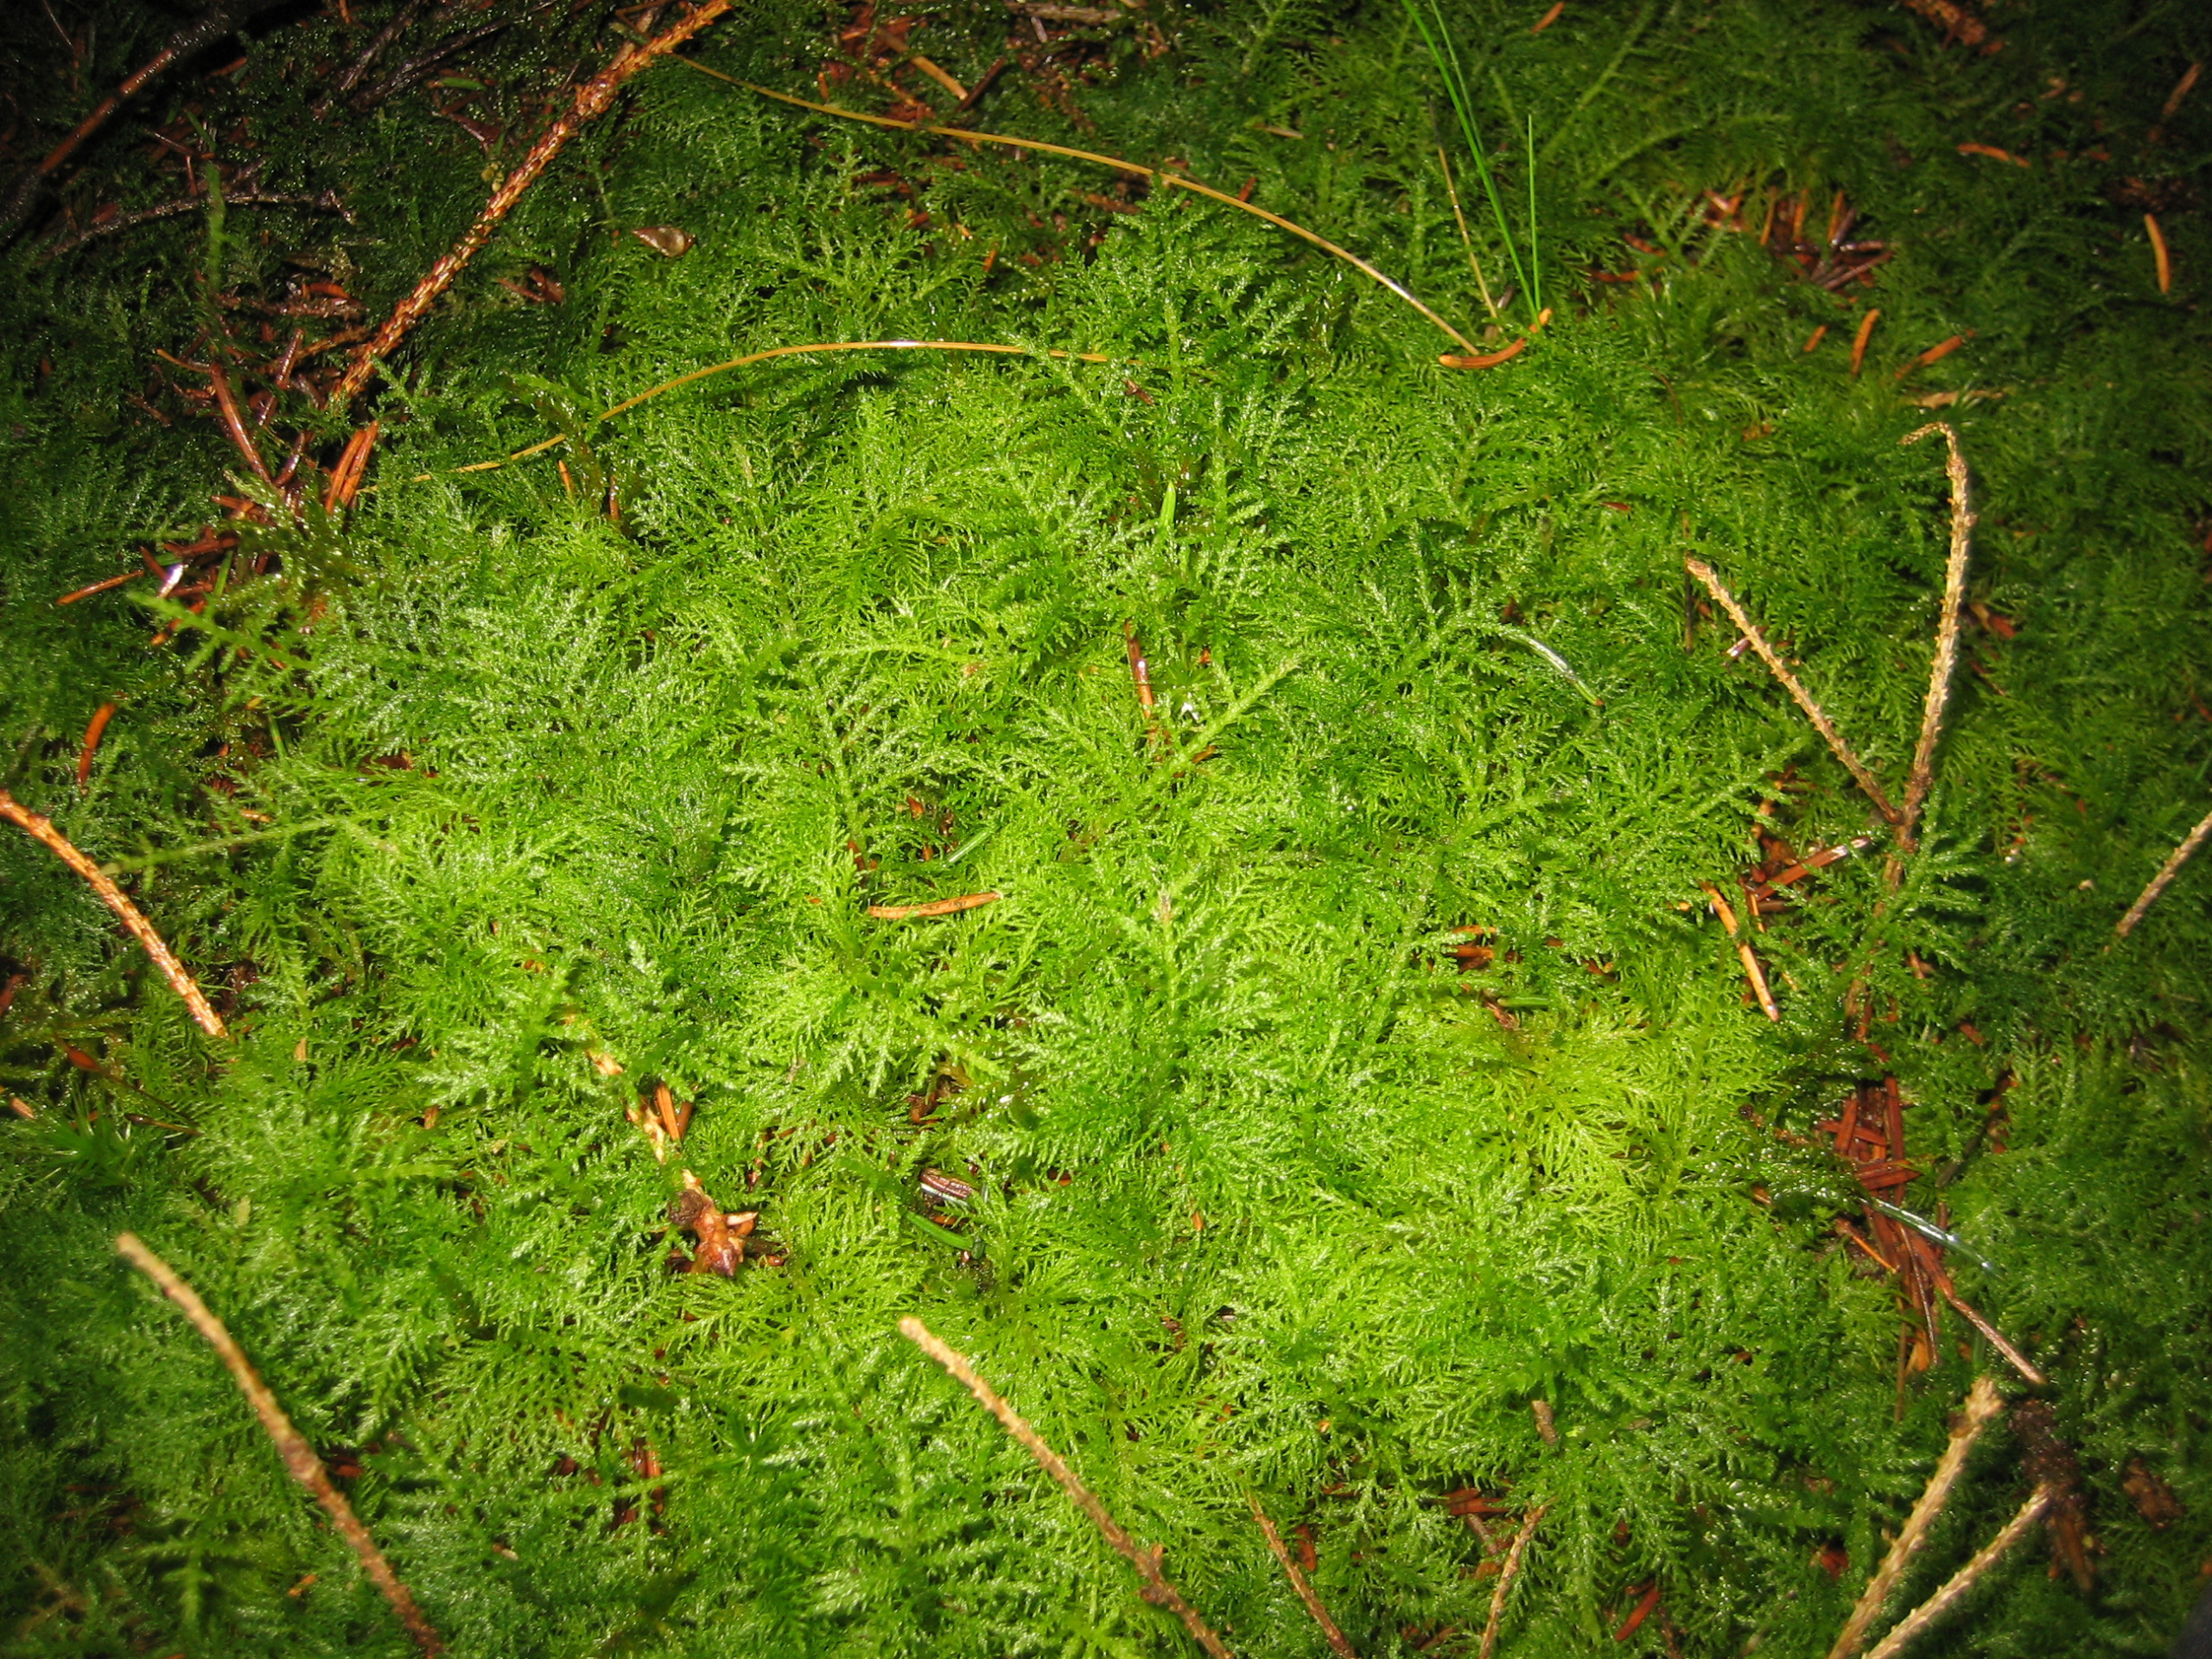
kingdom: Plantae
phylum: Bryophyta
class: Bryopsida
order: Hypnales
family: Thuidiaceae
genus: Thuidium
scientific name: Thuidium tamariscinum
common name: Pryd-bregnemos
